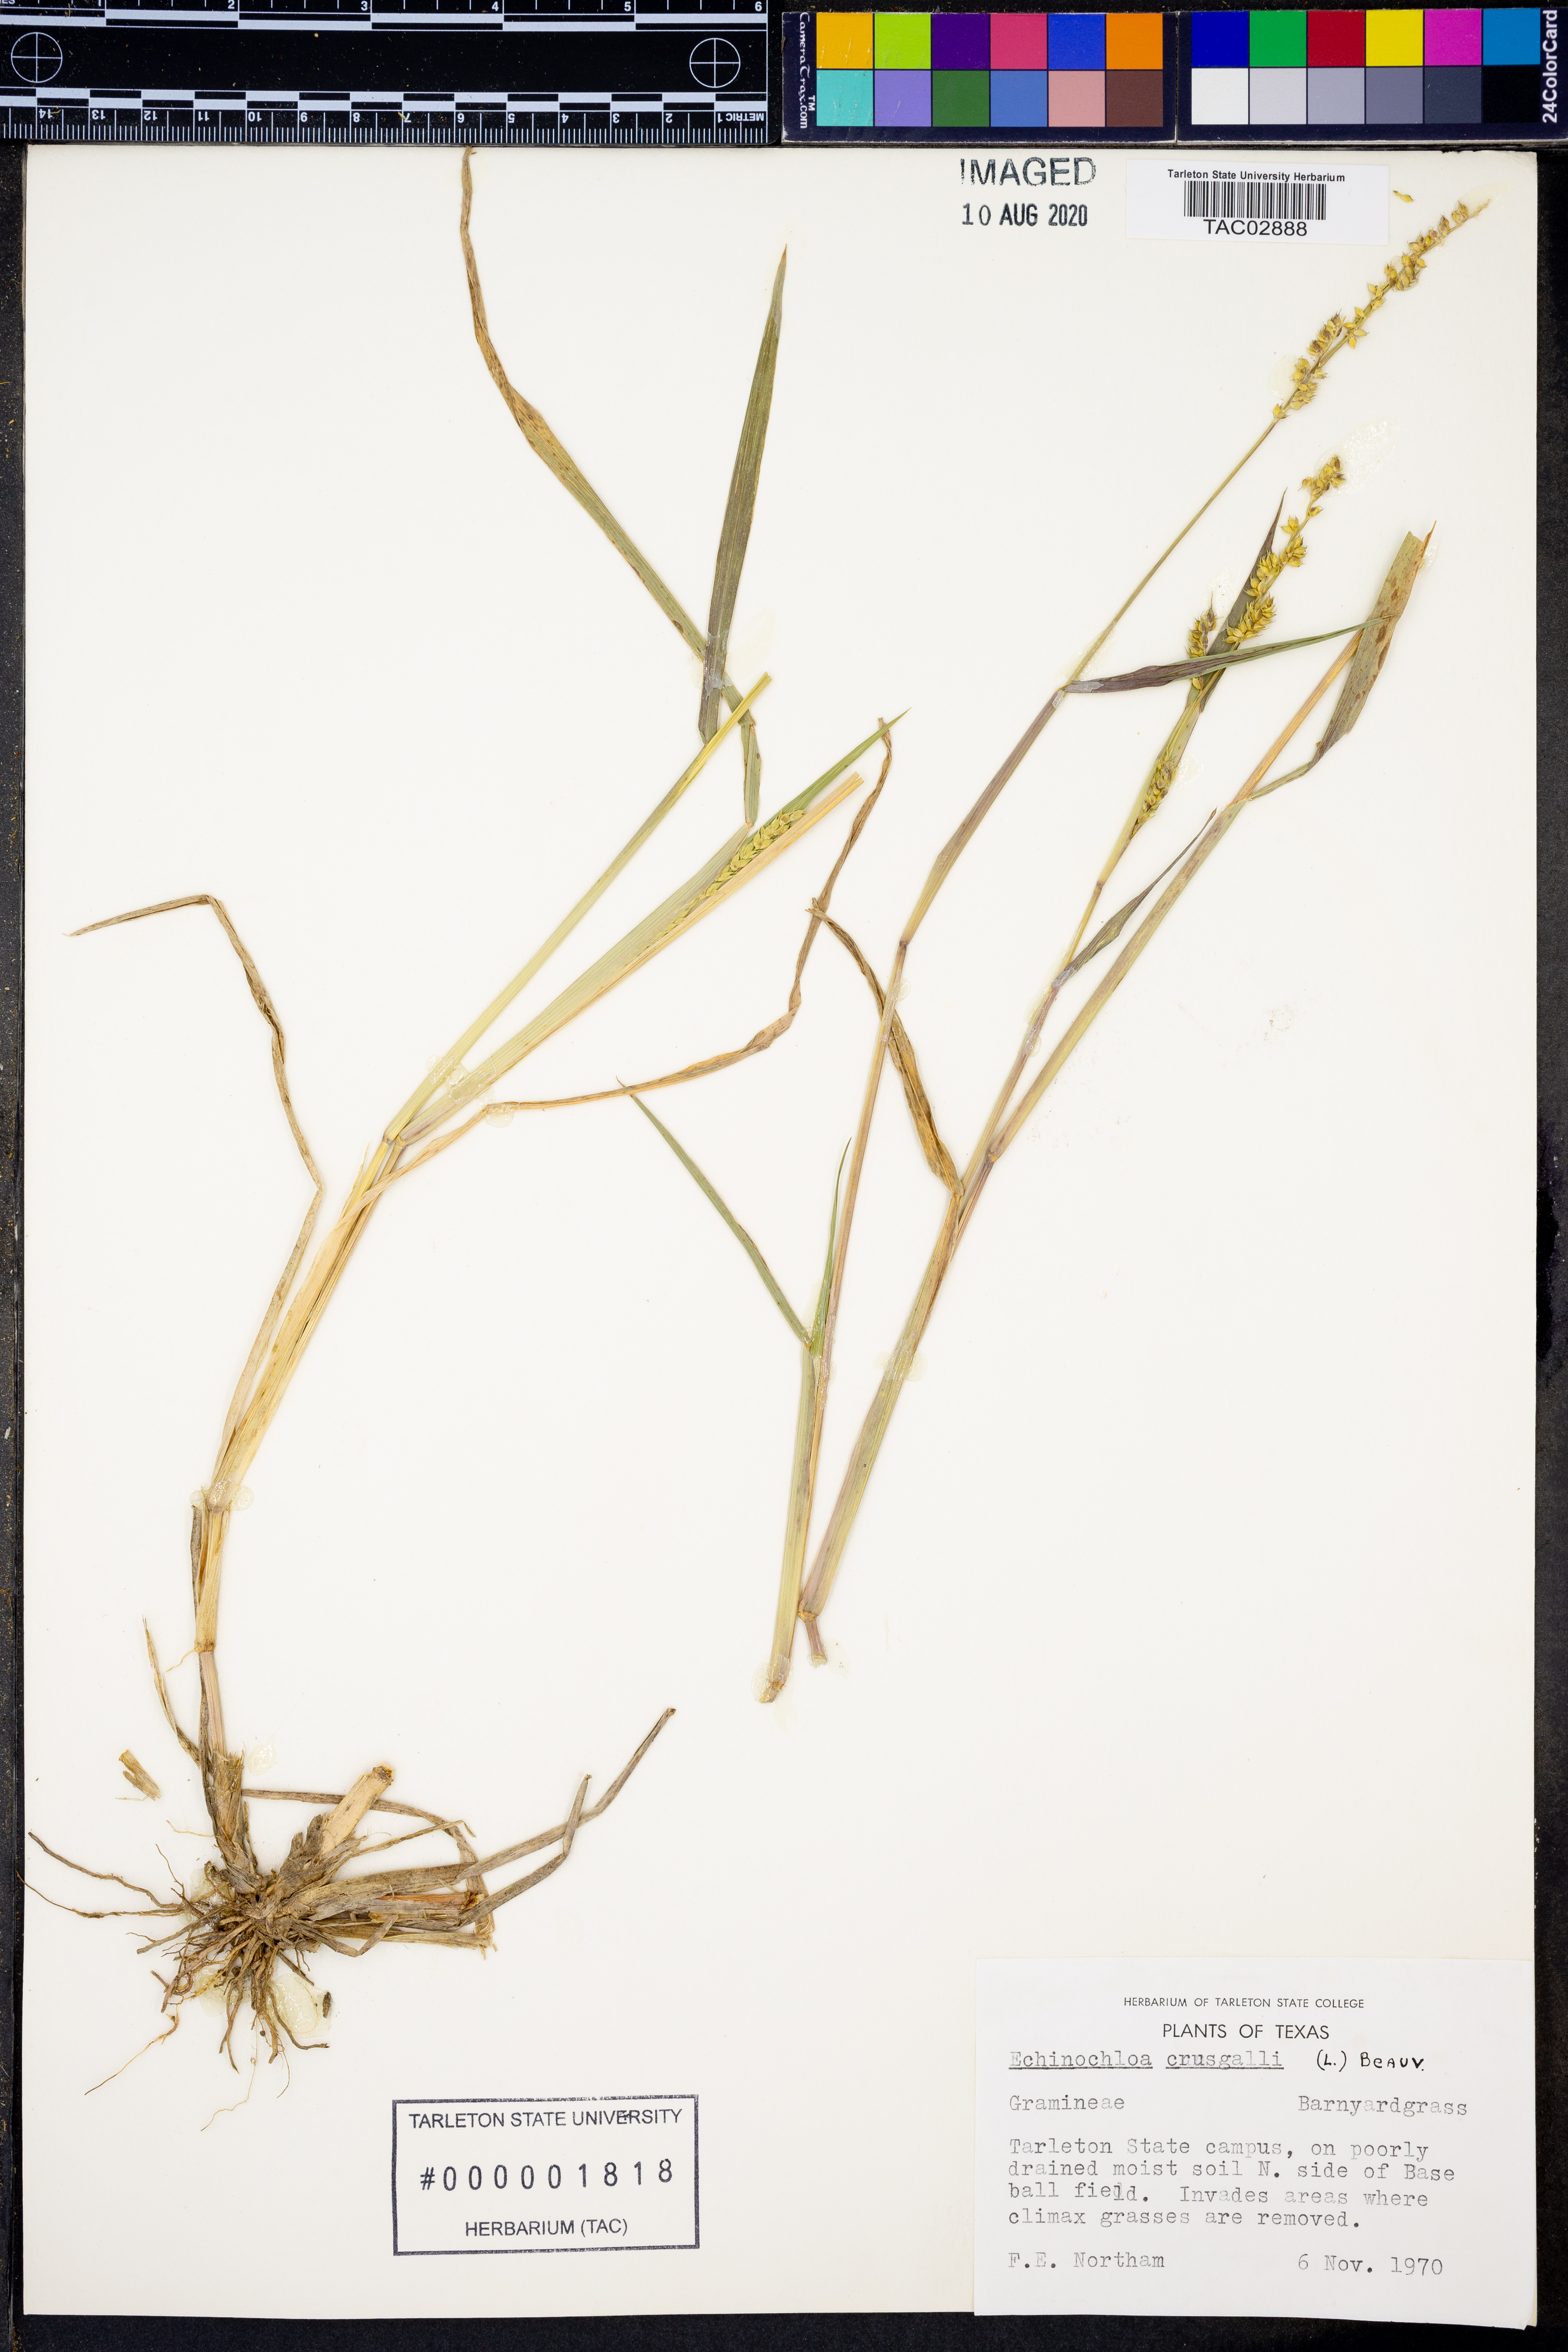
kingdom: Plantae
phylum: Tracheophyta
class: Liliopsida
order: Poales
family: Poaceae
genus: Echinochloa
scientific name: Echinochloa crus-galli
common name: Cockspur
